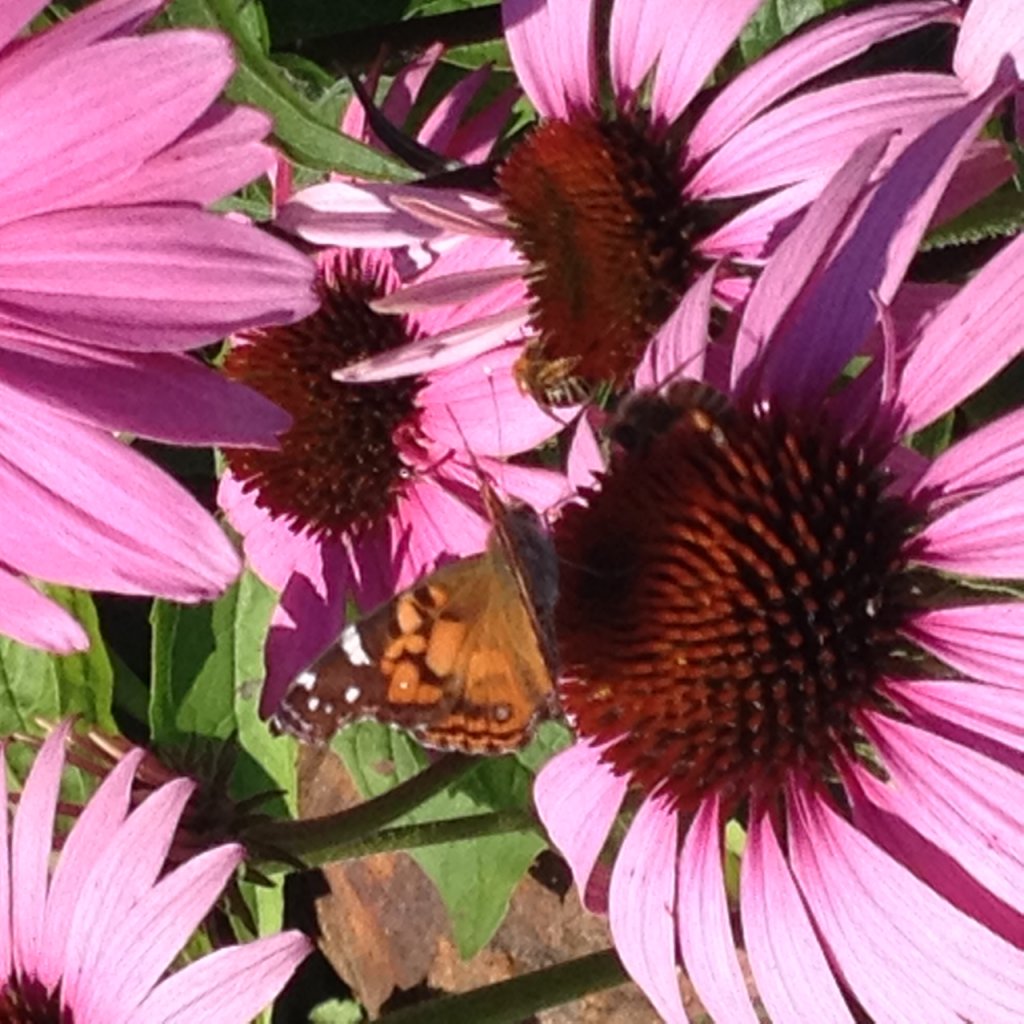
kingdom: Animalia
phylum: Arthropoda
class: Insecta
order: Lepidoptera
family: Nymphalidae
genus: Vanessa
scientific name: Vanessa virginiensis
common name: American Lady
